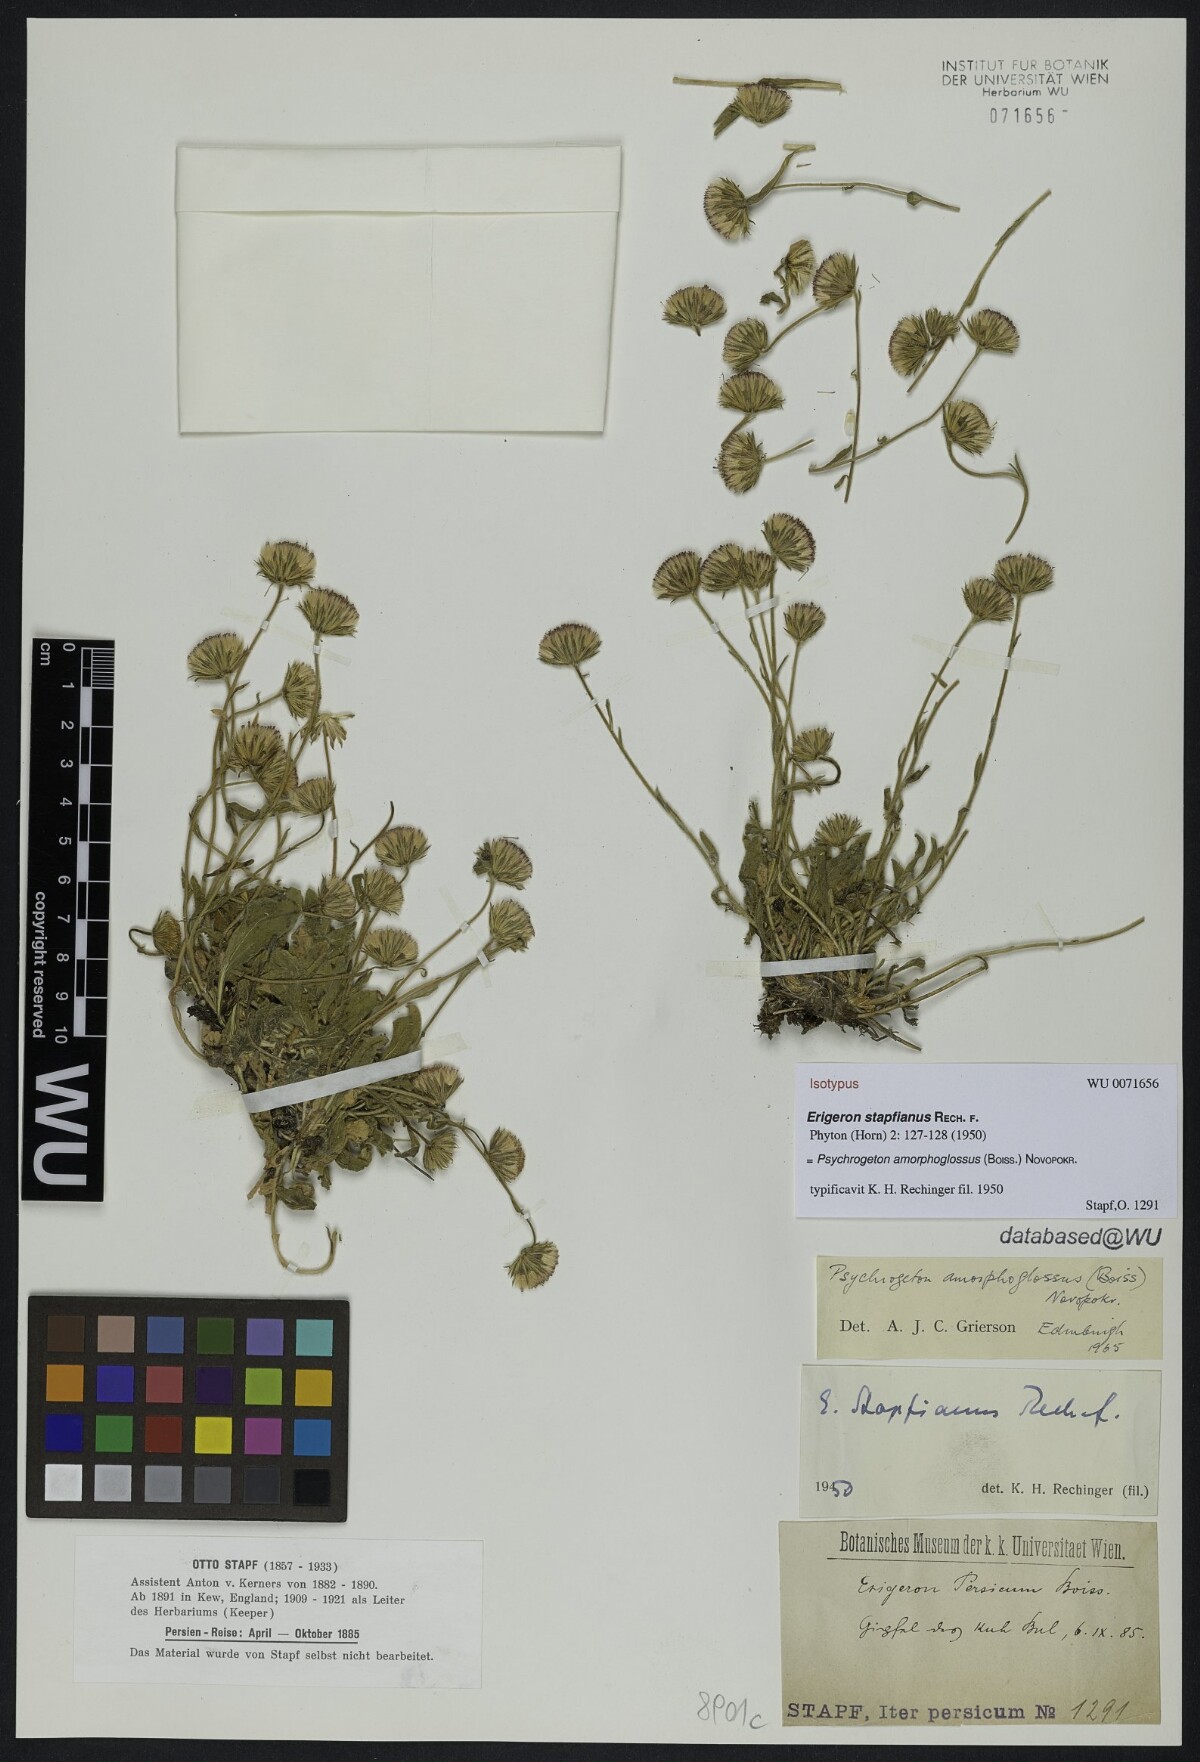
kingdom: Plantae
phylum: Tracheophyta
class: Magnoliopsida
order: Asterales
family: Asteraceae
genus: Psychrogeton
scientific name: Psychrogeton amorphoglossus
